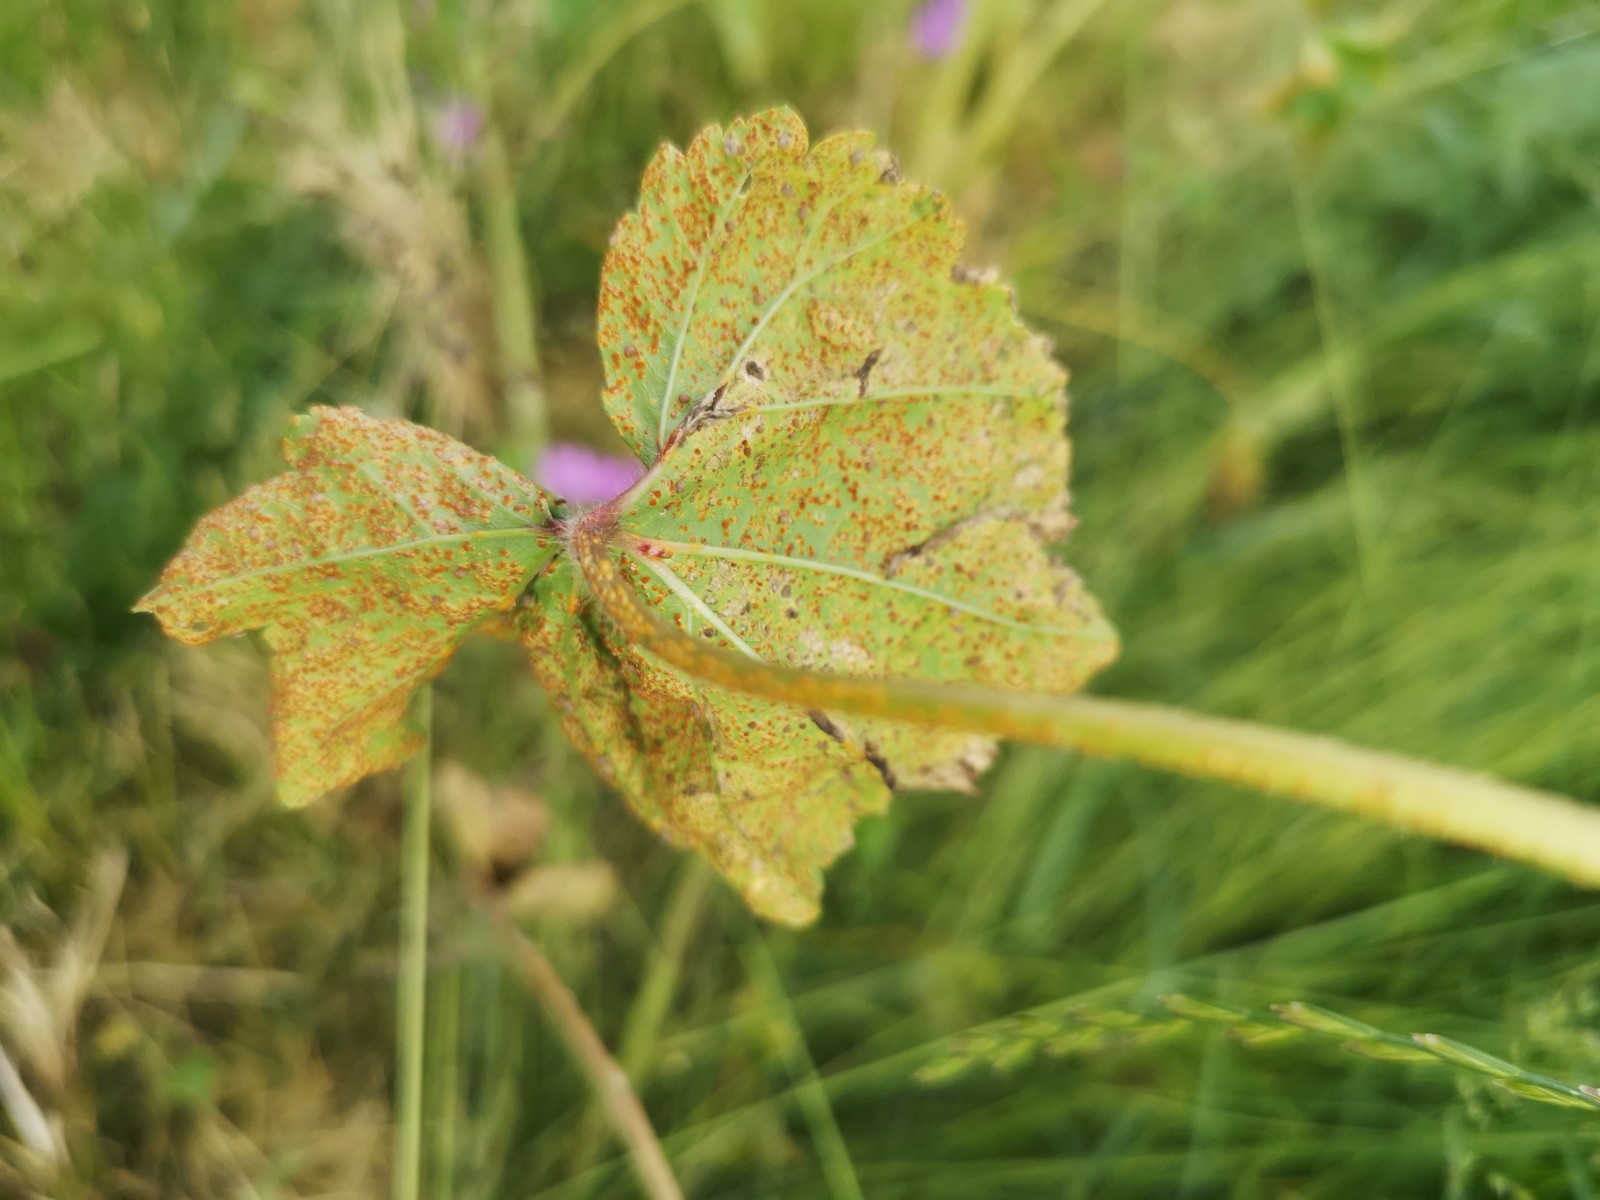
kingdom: Fungi
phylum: Basidiomycota
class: Pucciniomycetes
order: Pucciniales
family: Pucciniaceae
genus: Puccinia
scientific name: Puccinia malvacearum
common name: stokrose-tvecellerust
